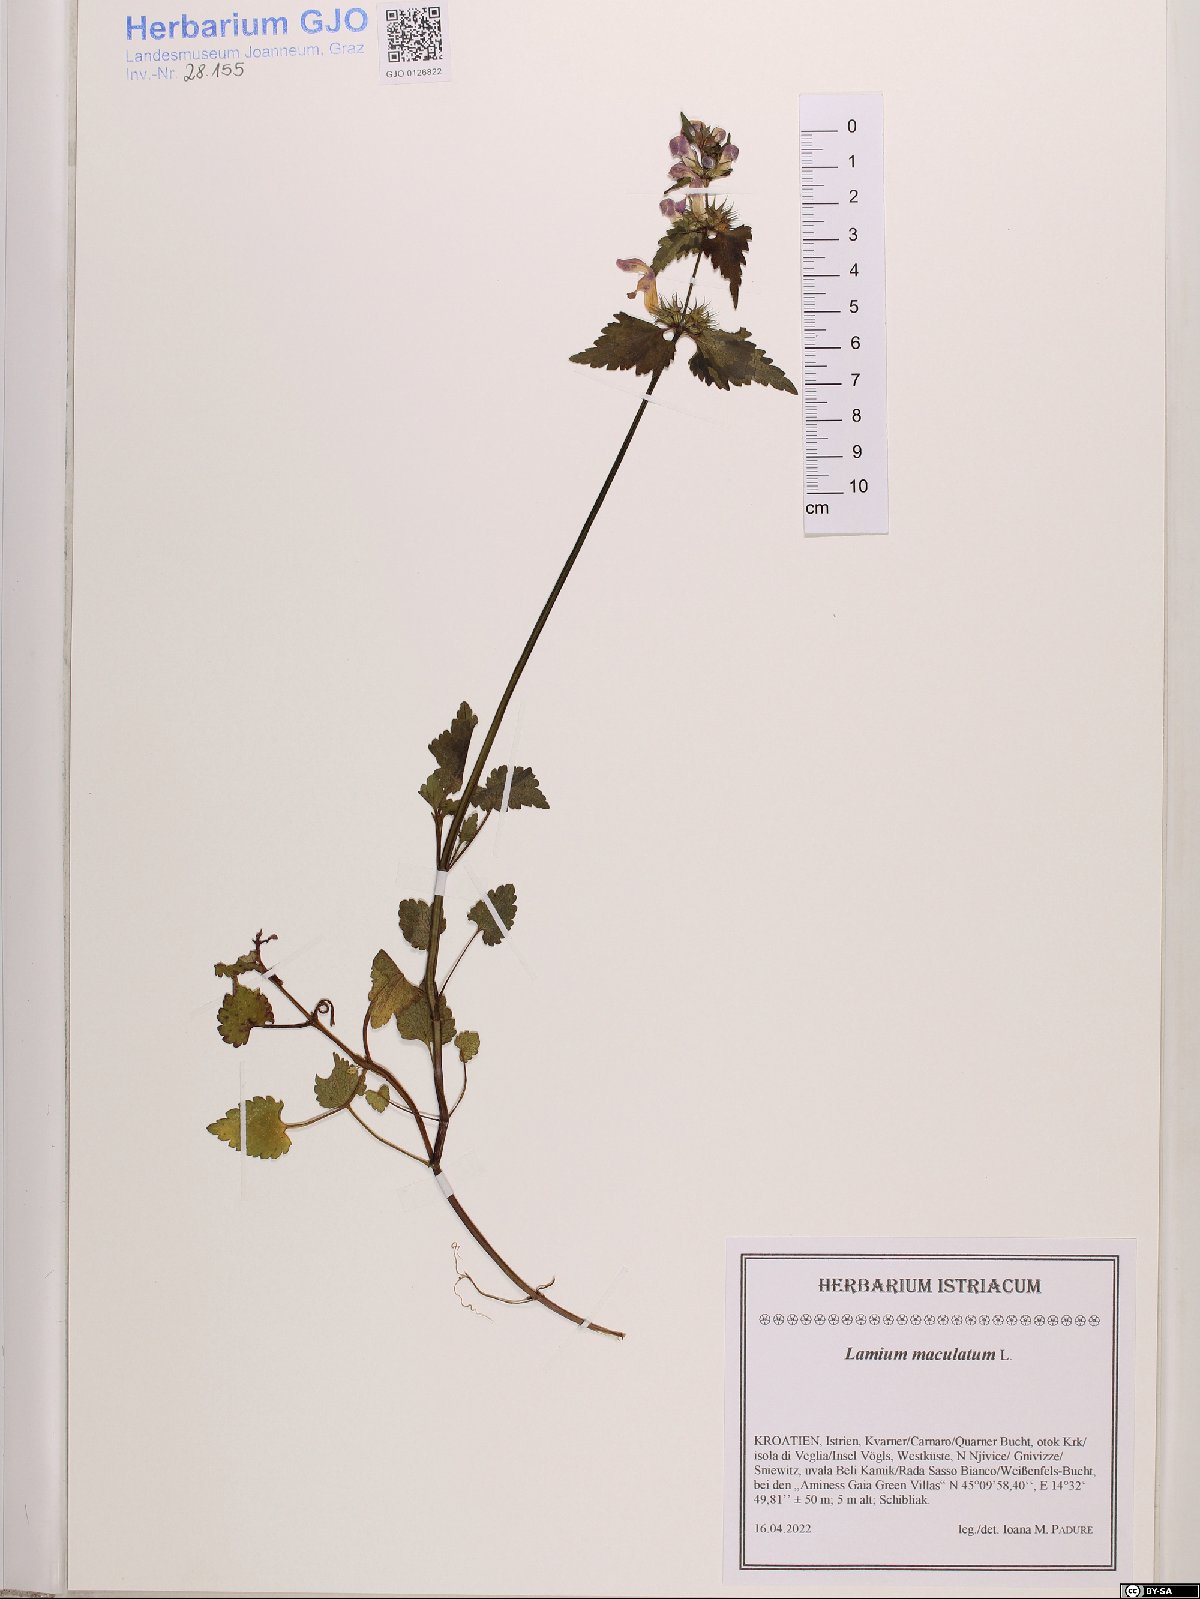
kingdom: Plantae
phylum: Tracheophyta
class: Magnoliopsida
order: Lamiales
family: Lamiaceae
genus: Lamium
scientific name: Lamium maculatum
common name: Spotted dead-nettle
